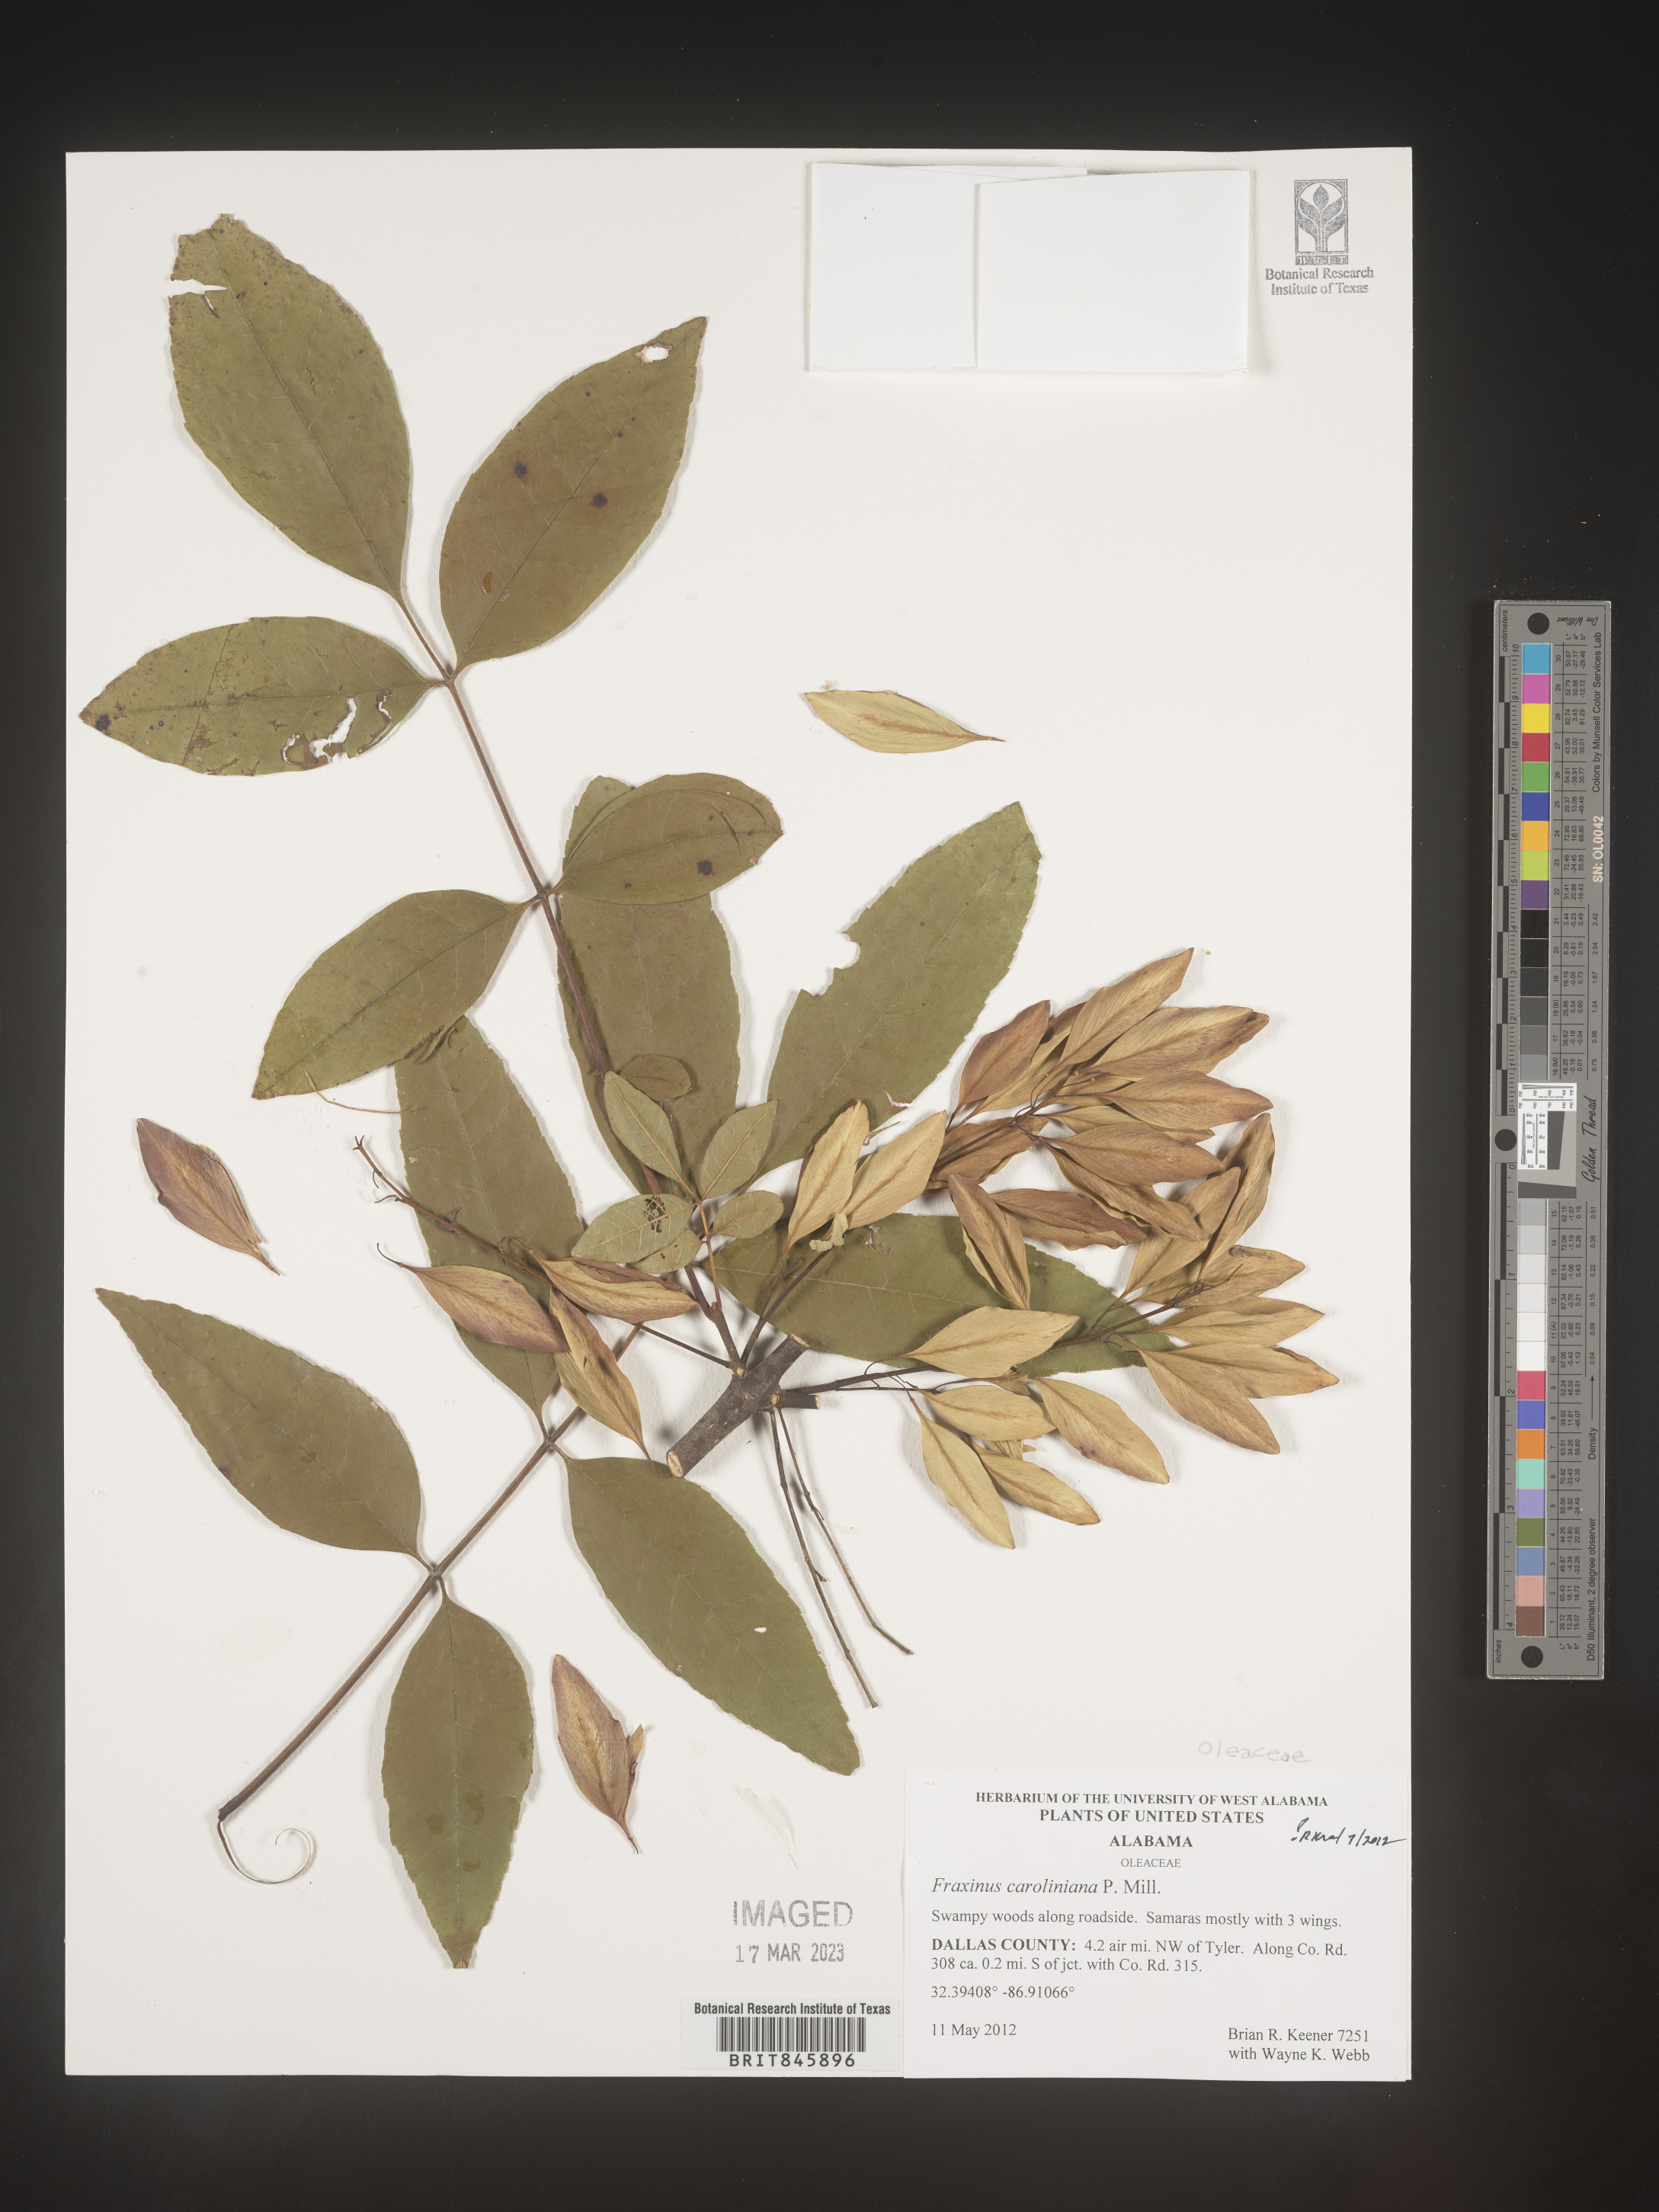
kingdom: Plantae
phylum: Tracheophyta
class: Magnoliopsida
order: Lamiales
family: Oleaceae
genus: Fraxinus
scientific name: Fraxinus caroliniana
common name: Carolina ash
